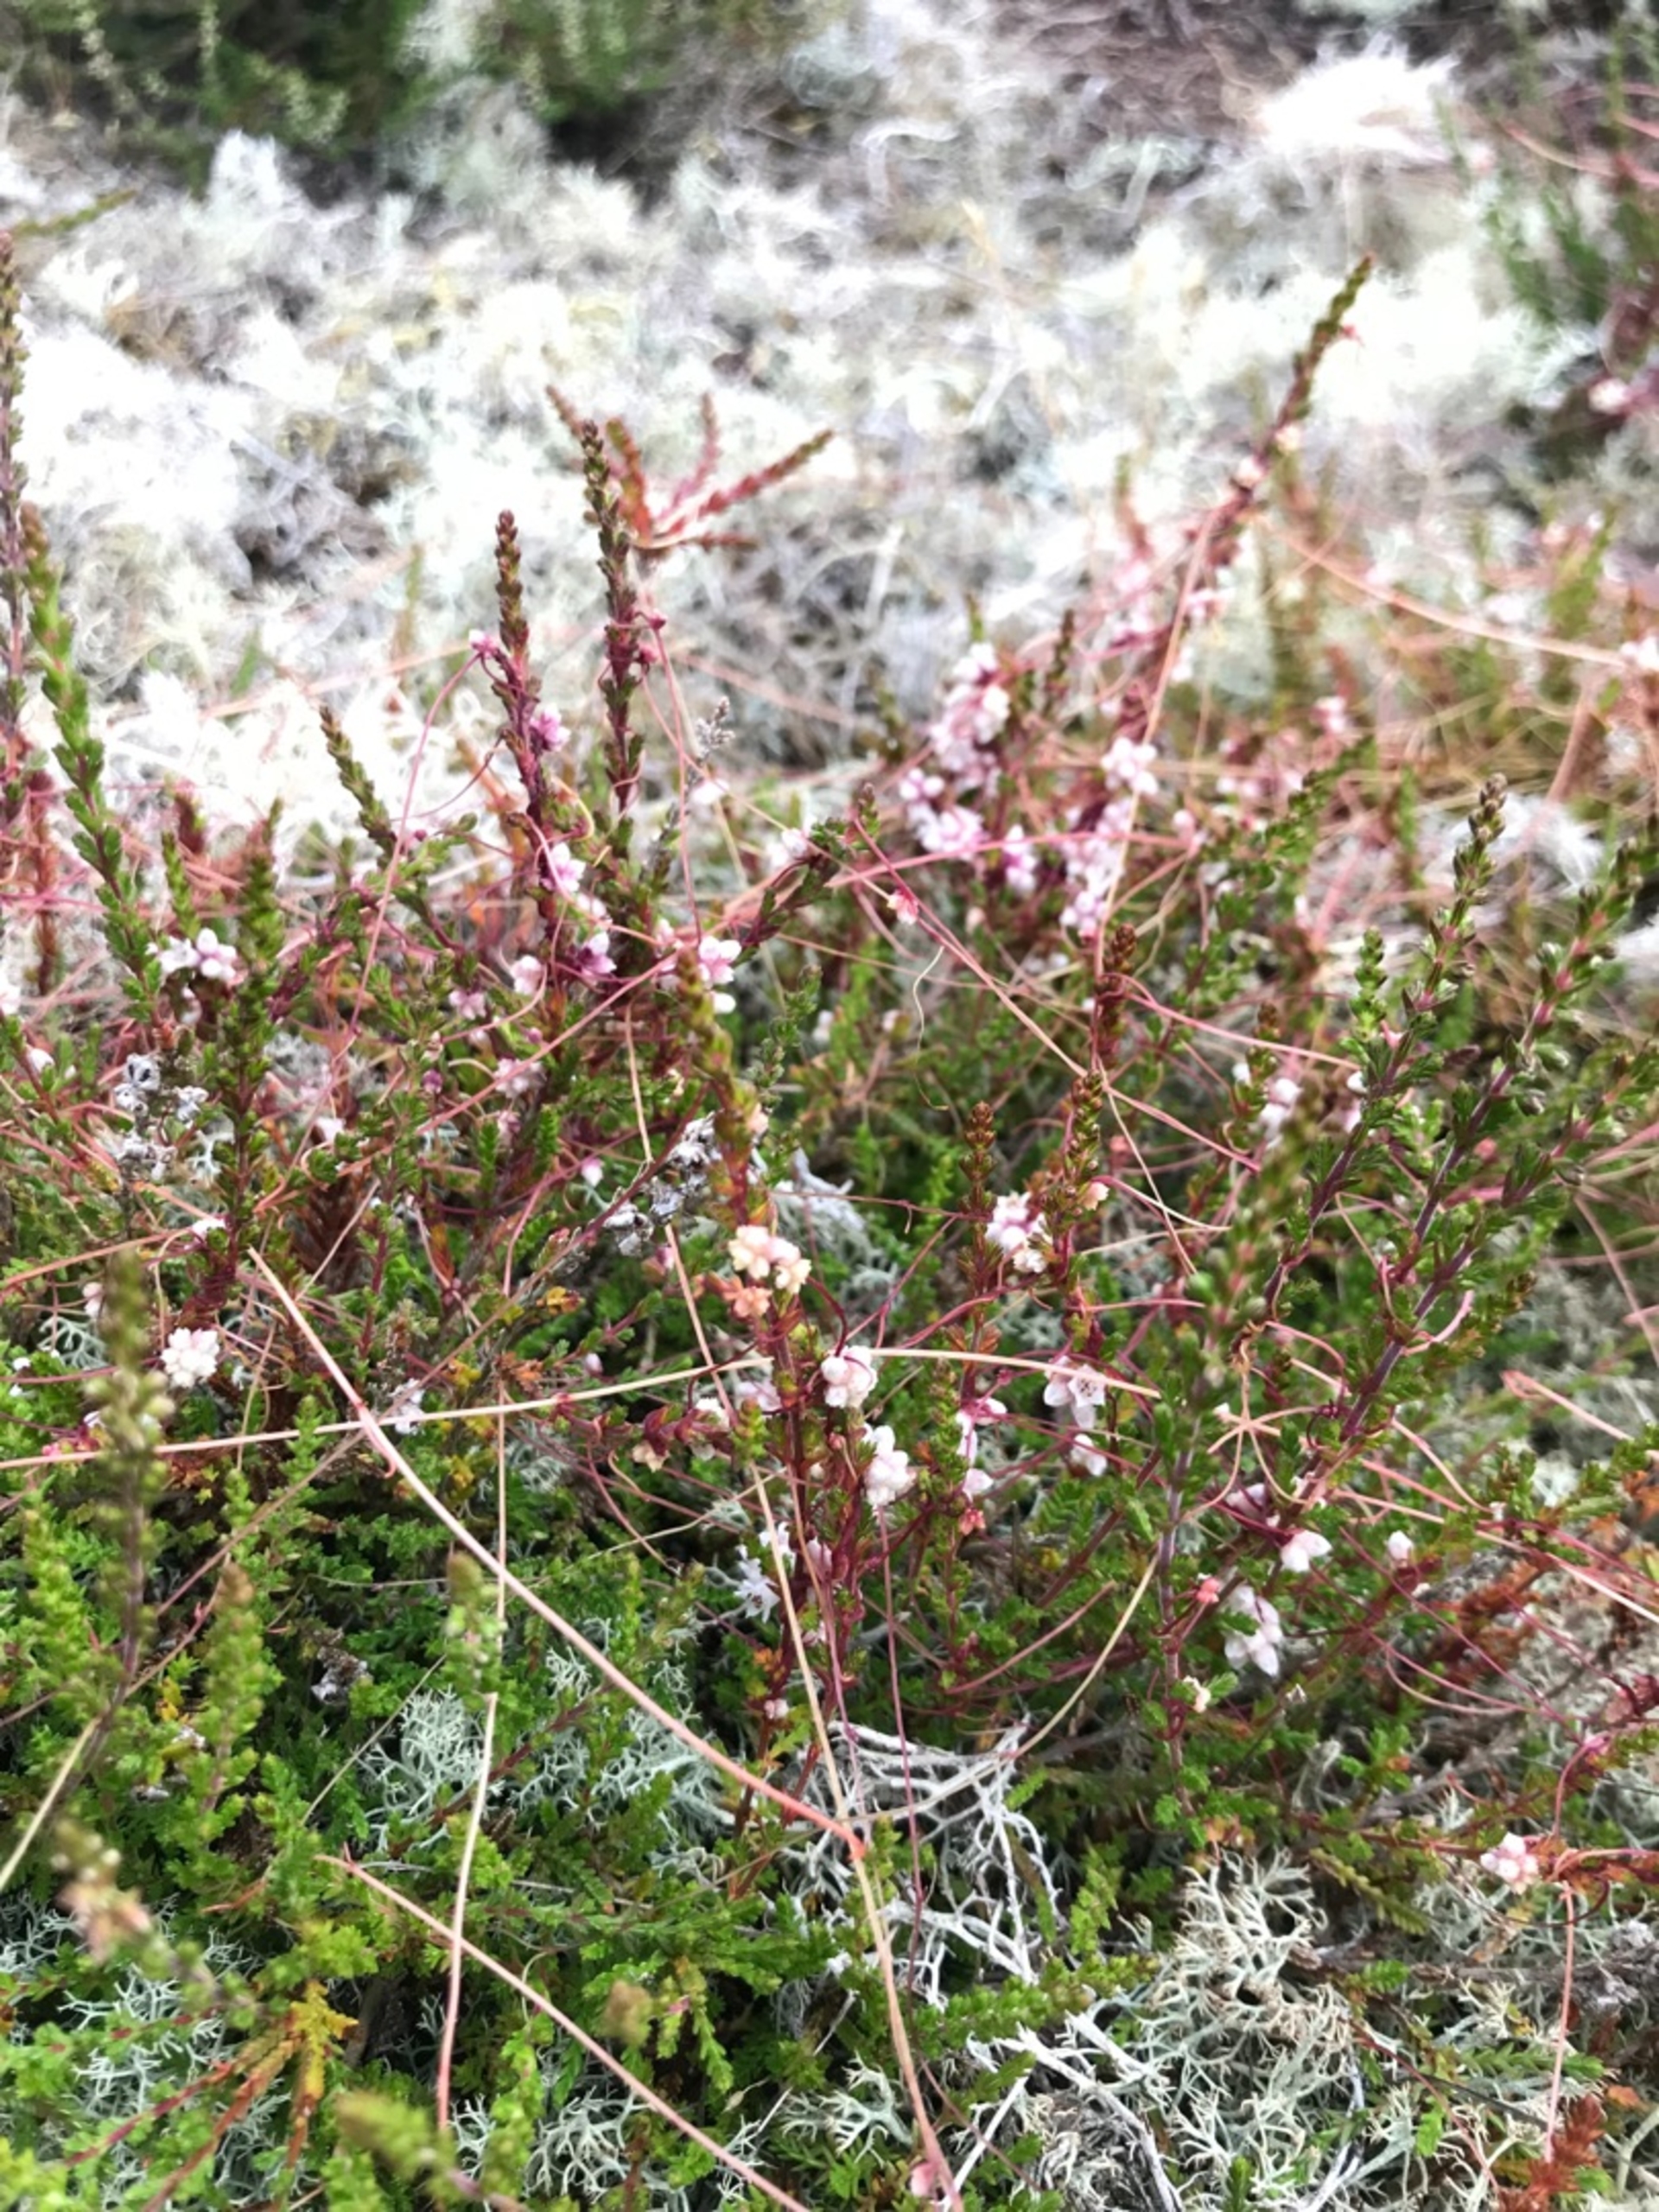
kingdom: Plantae
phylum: Tracheophyta
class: Magnoliopsida
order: Solanales
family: Convolvulaceae
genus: Cuscuta
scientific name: Cuscuta epithymum
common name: Lyng-silke
